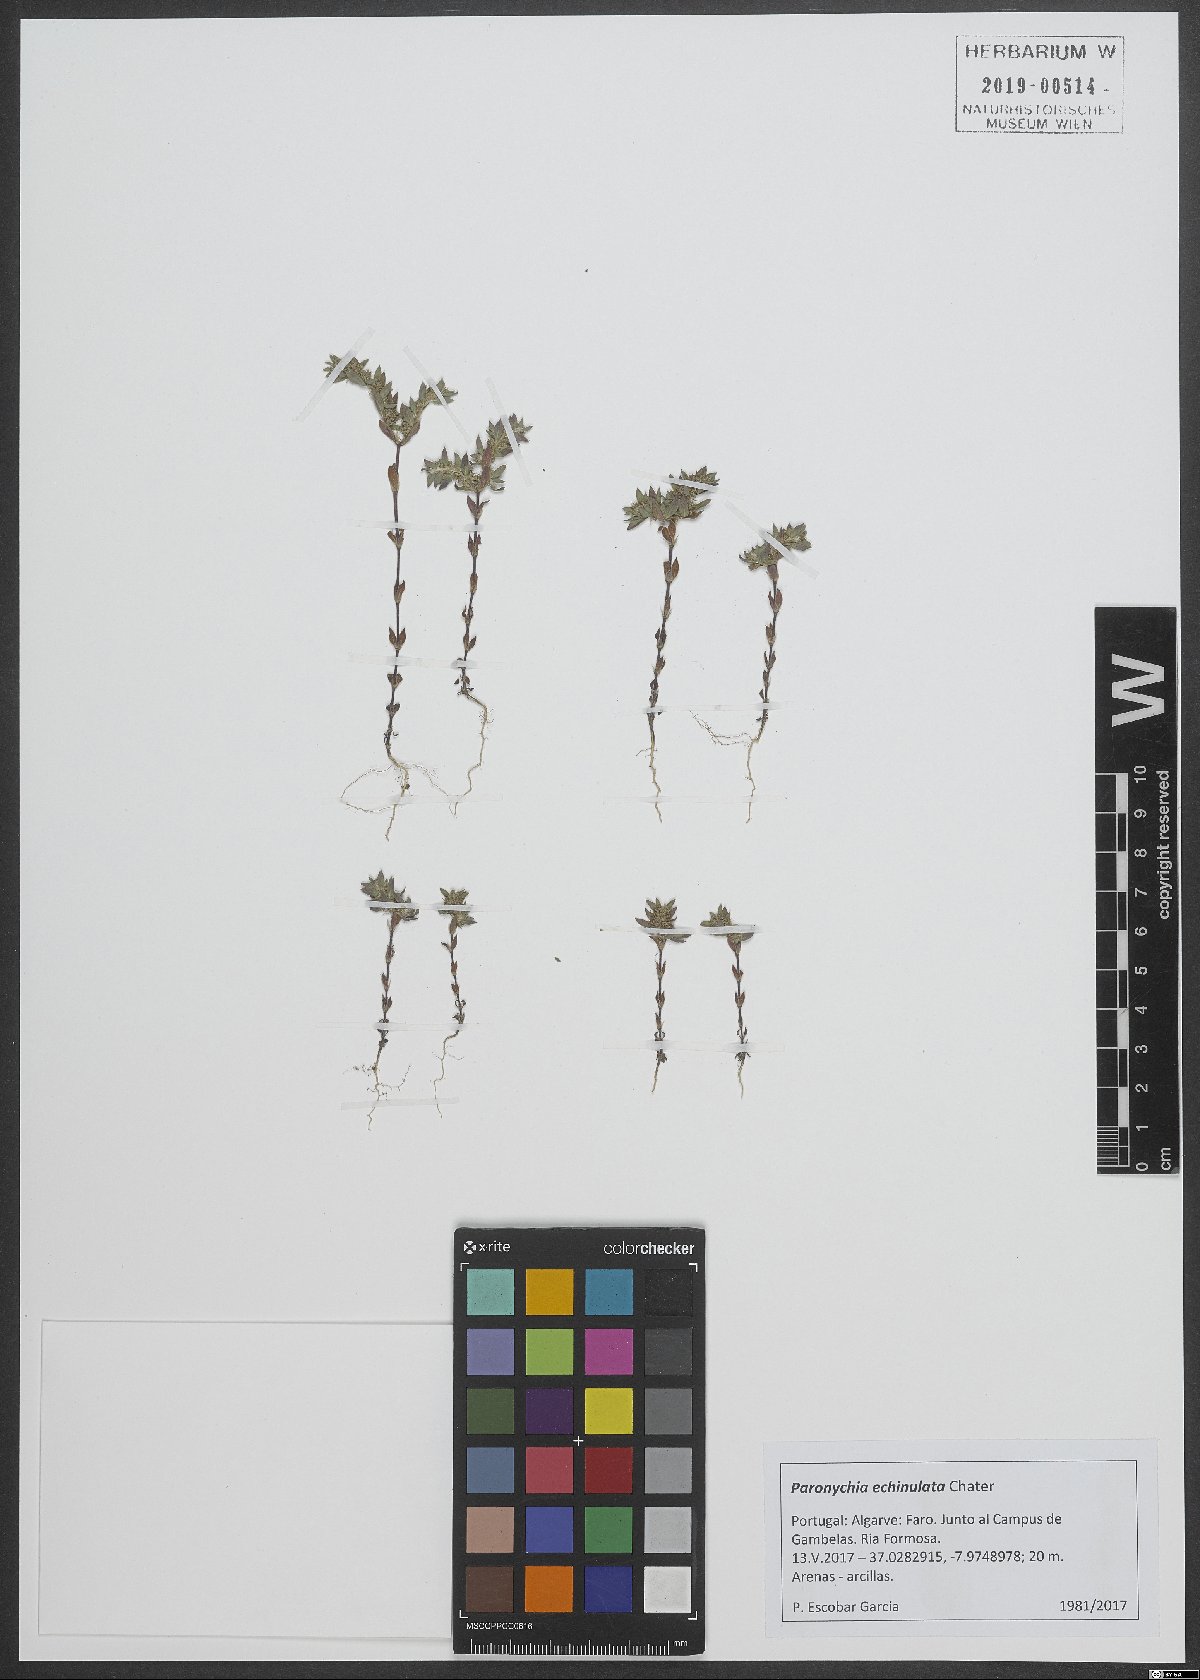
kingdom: Plantae
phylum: Tracheophyta
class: Magnoliopsida
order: Caryophyllales
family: Caryophyllaceae
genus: Paronychia
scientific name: Paronychia echinulata
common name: Eurasian nailwort
